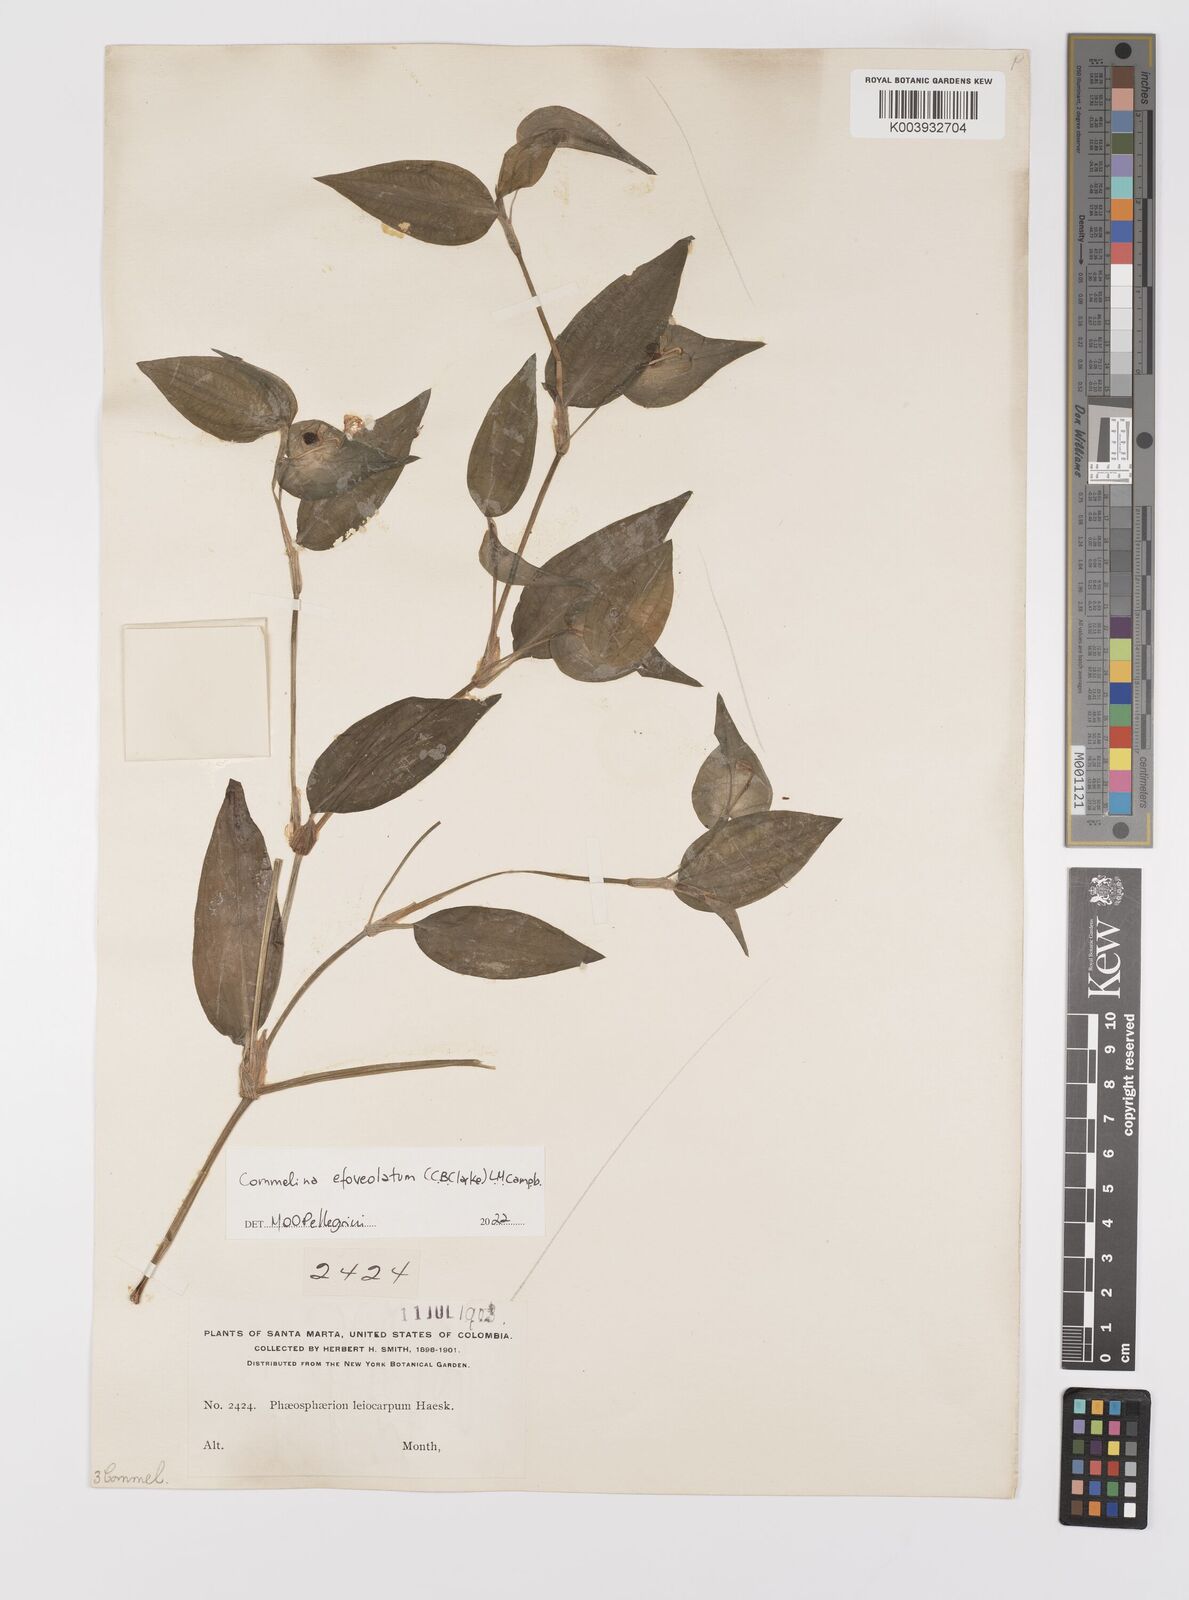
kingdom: Plantae
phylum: Tracheophyta
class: Liliopsida
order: Commelinales
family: Commelinaceae
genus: Commelina
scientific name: Commelina leiocarpa
